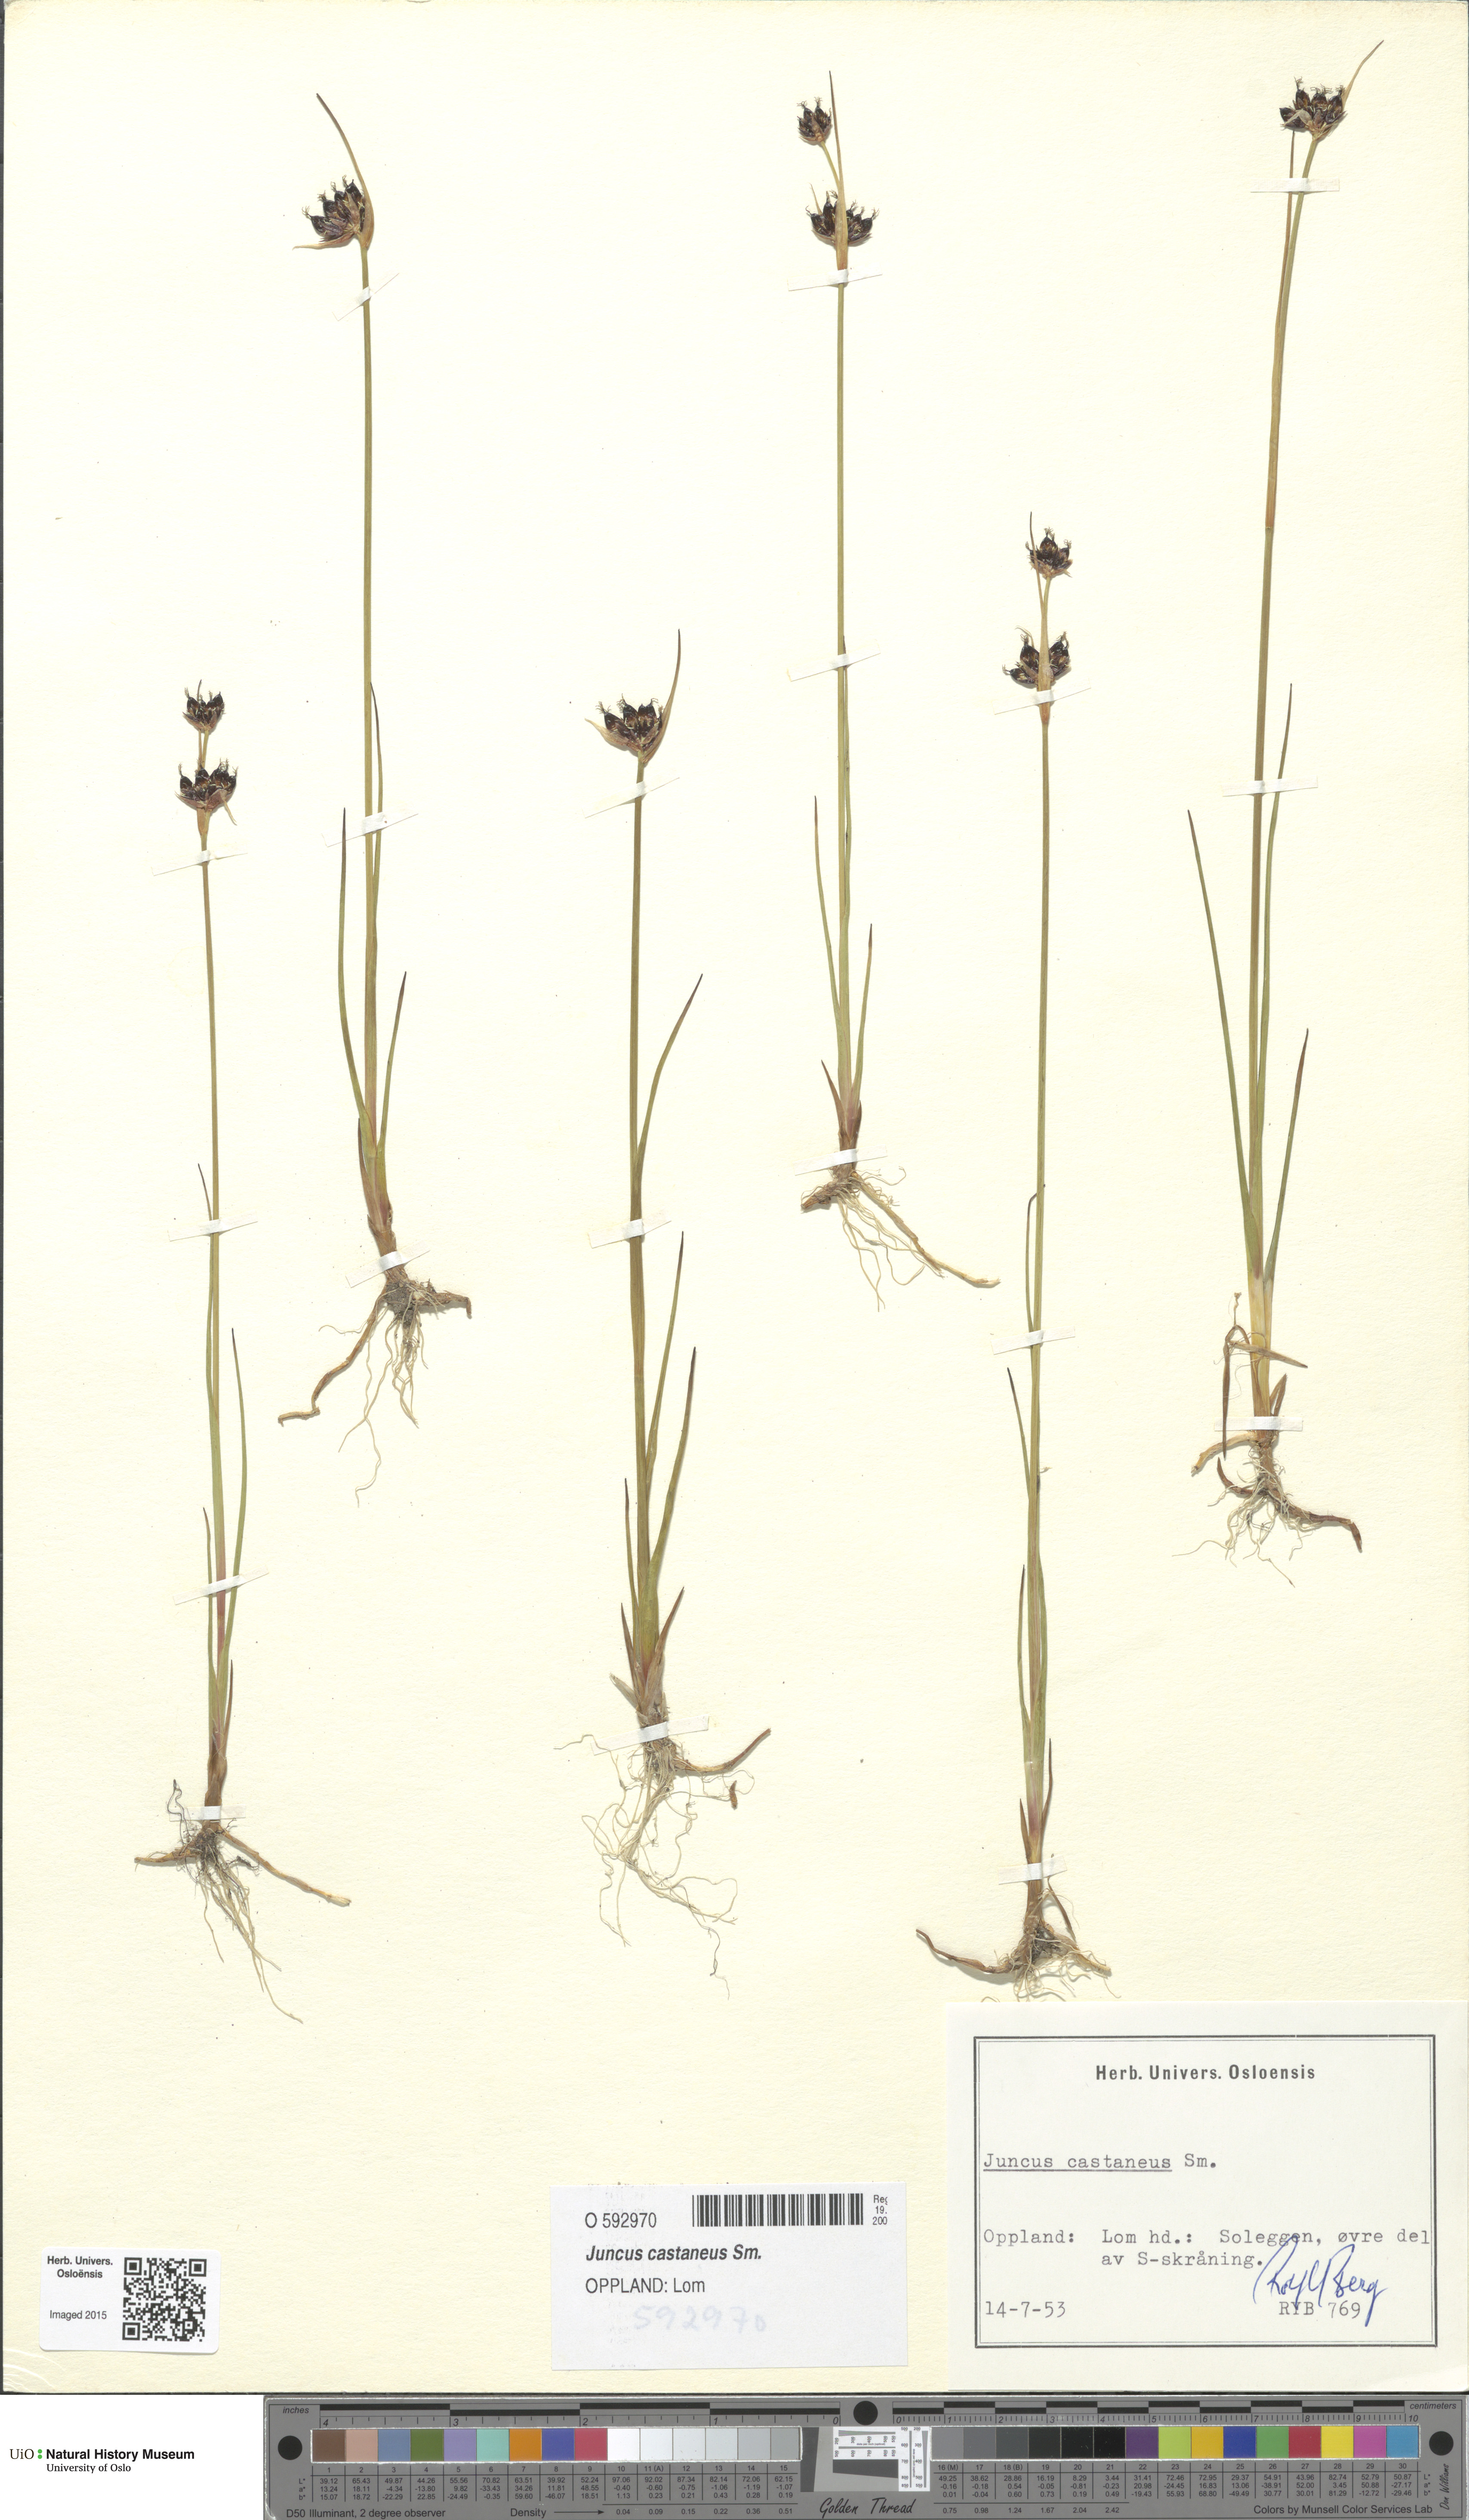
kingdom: Plantae
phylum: Tracheophyta
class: Liliopsida
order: Poales
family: Juncaceae
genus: Juncus
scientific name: Juncus castaneus
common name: Chestnut rush
